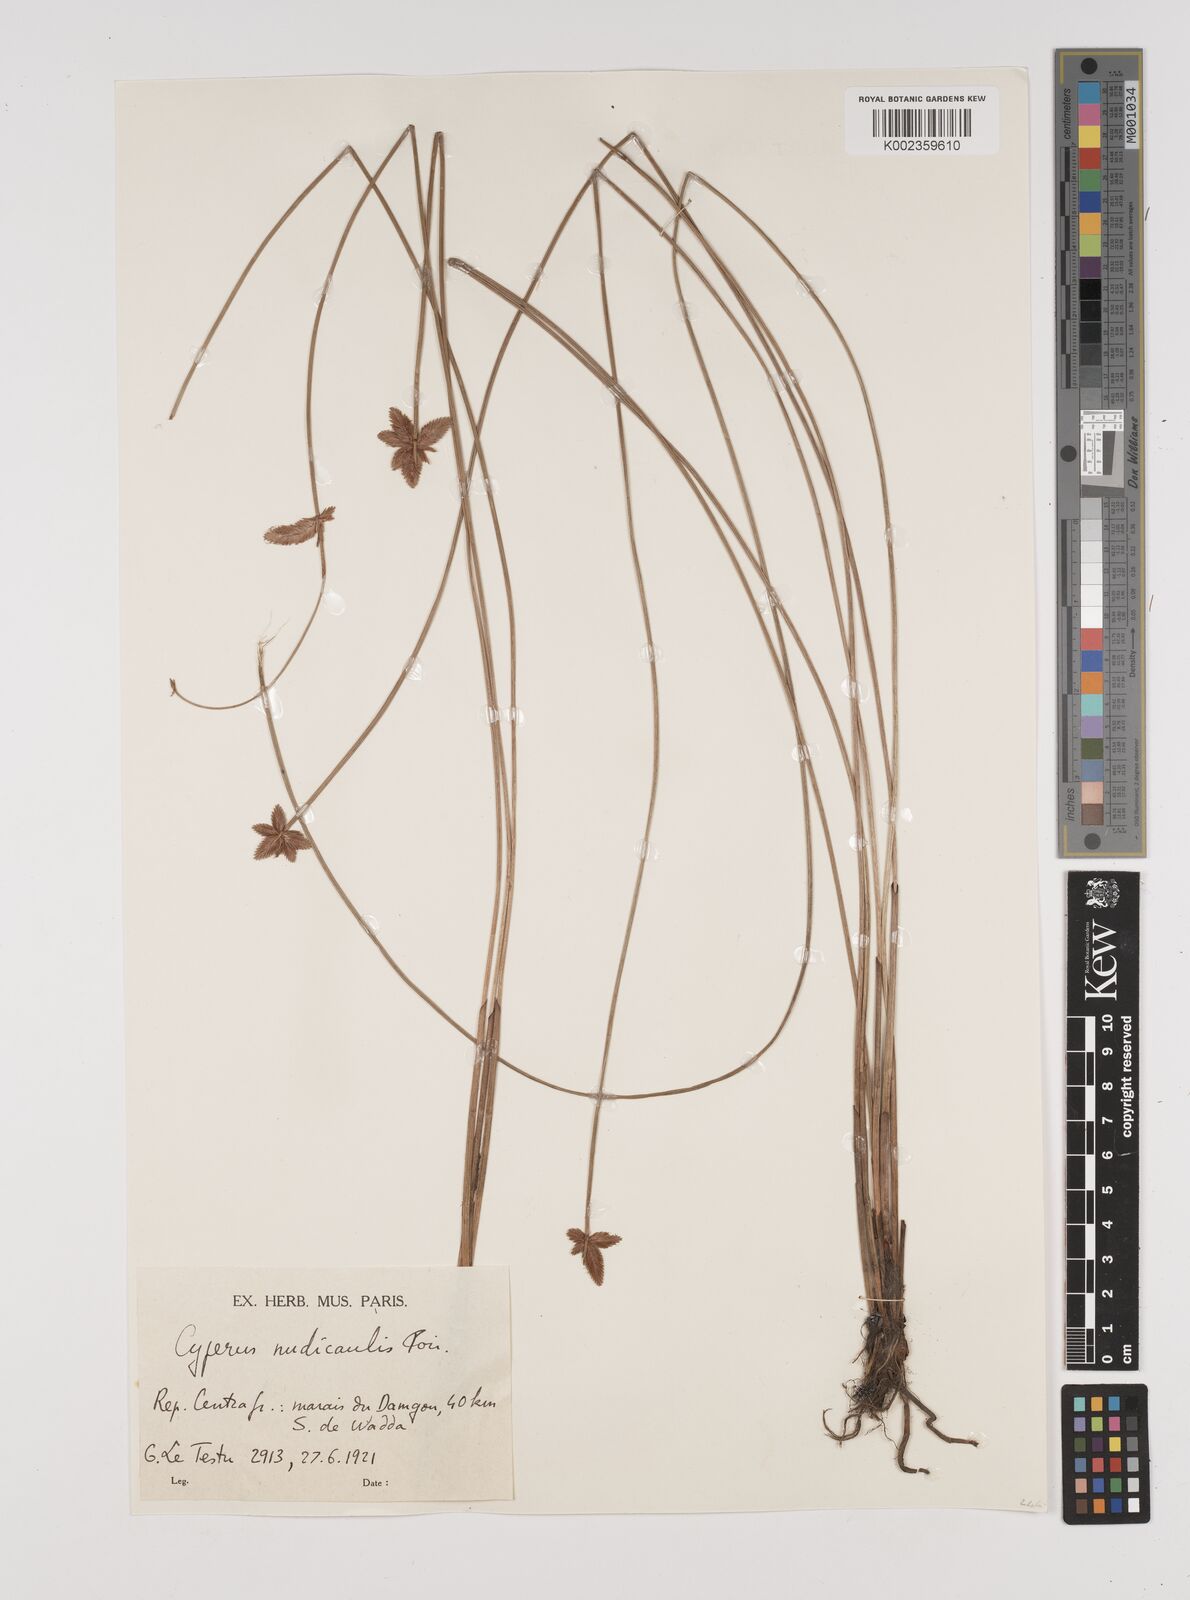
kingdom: Plantae
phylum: Tracheophyta
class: Liliopsida
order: Poales
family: Cyperaceae
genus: Cyperus
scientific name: Cyperus pectinatus
